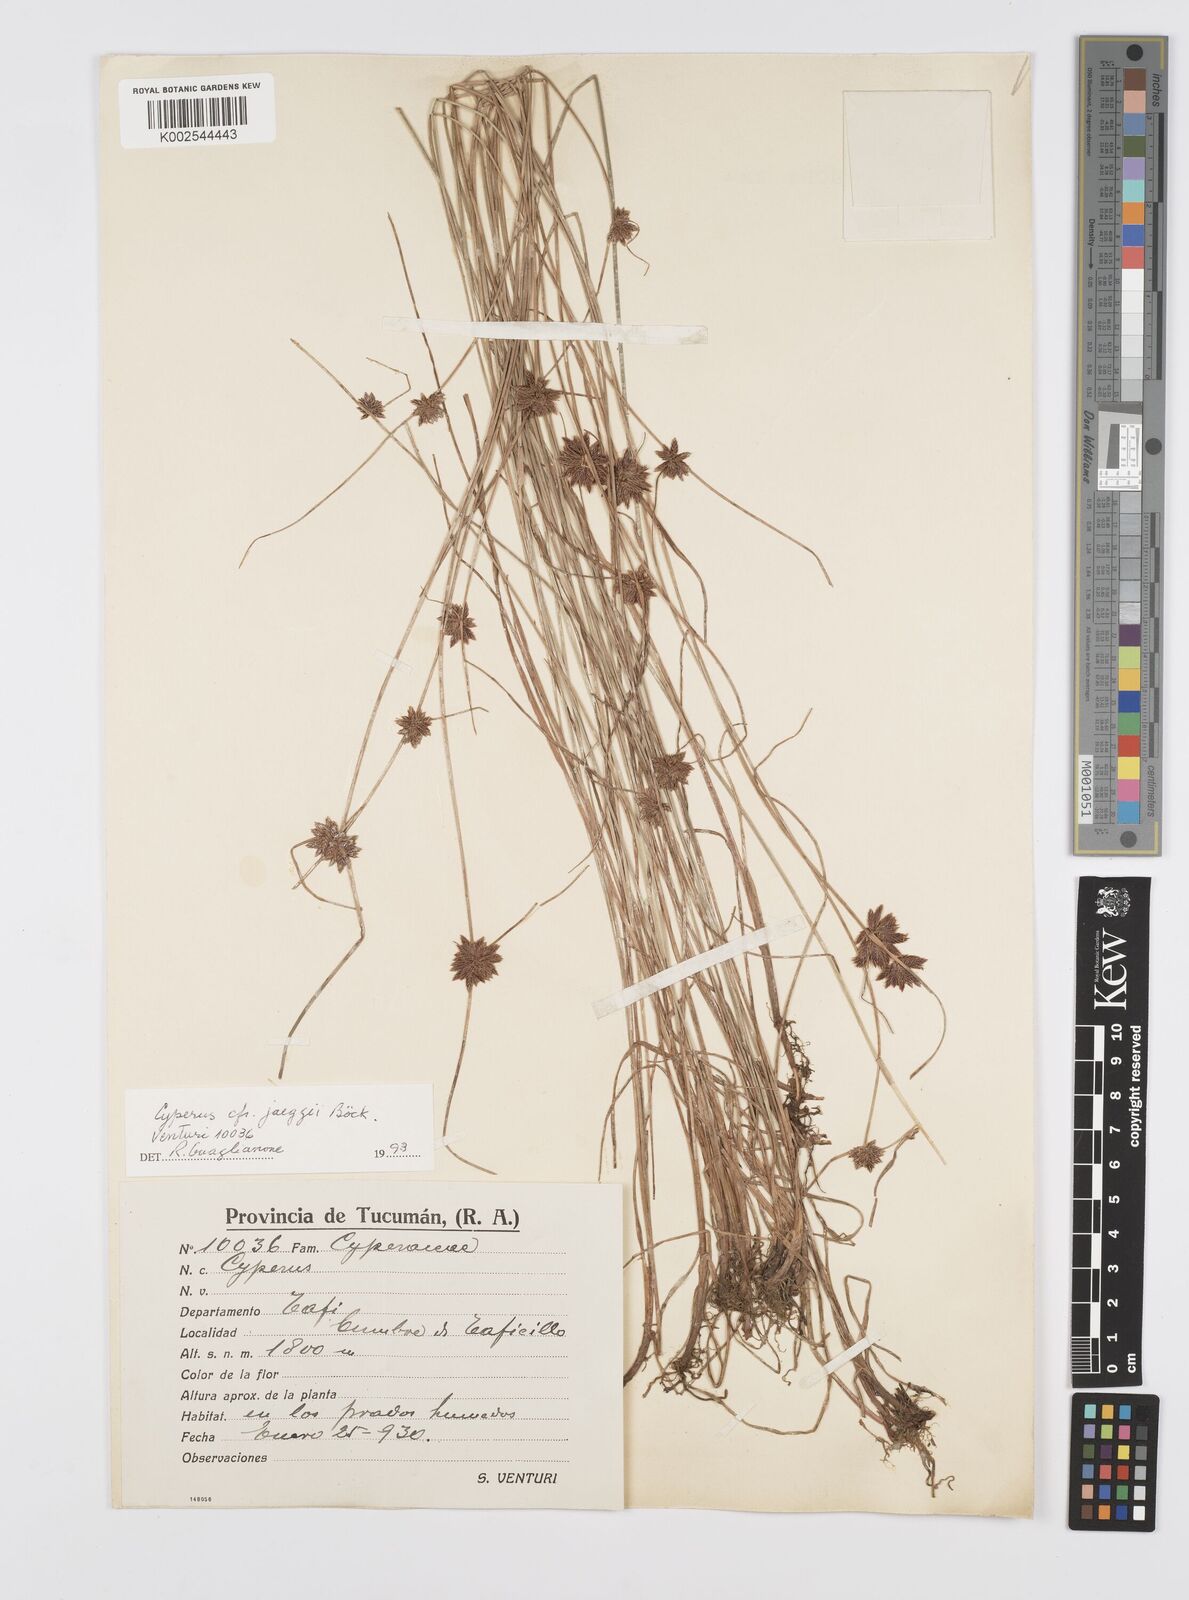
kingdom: Plantae
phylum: Tracheophyta
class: Liliopsida
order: Poales
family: Cyperaceae
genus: Cyperus
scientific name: Cyperus
